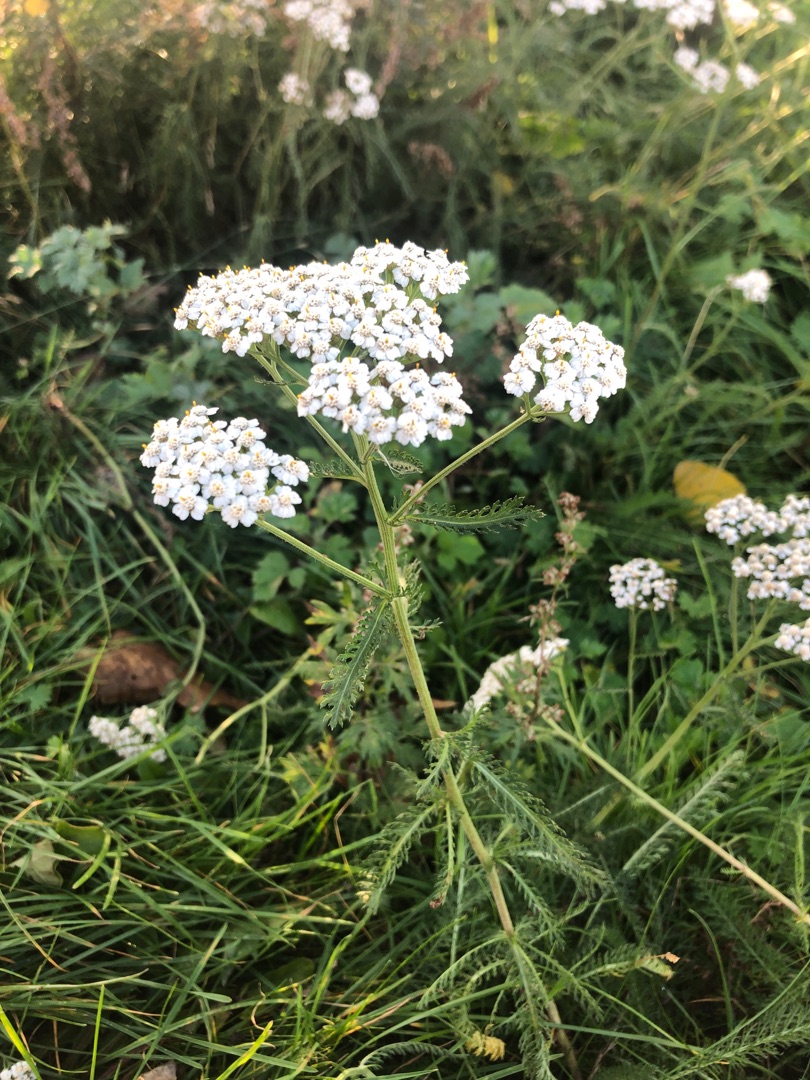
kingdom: Plantae
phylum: Tracheophyta
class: Magnoliopsida
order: Asterales
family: Asteraceae
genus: Achillea
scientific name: Achillea millefolium
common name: Almindelig røllike
